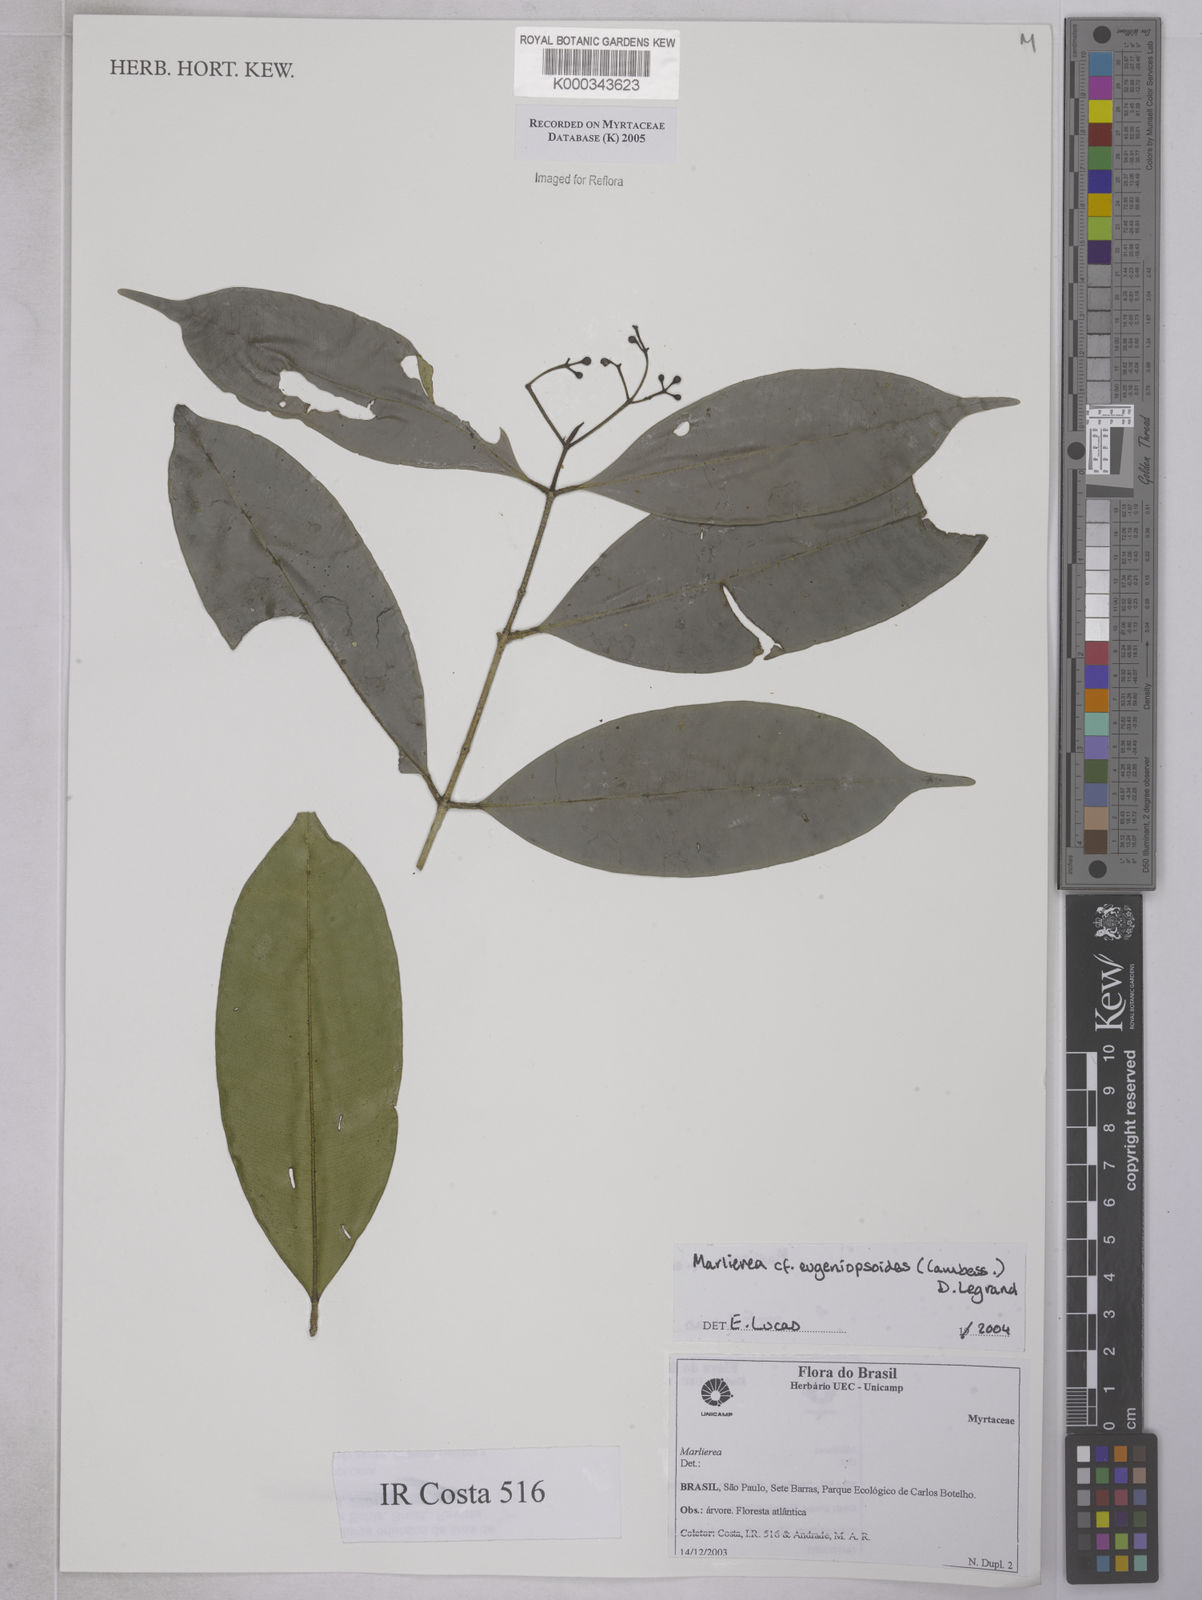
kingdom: Plantae
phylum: Tracheophyta
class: Magnoliopsida
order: Myrtales
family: Myrtaceae
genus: Myrcia
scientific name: Myrcia eugeniopsoides
